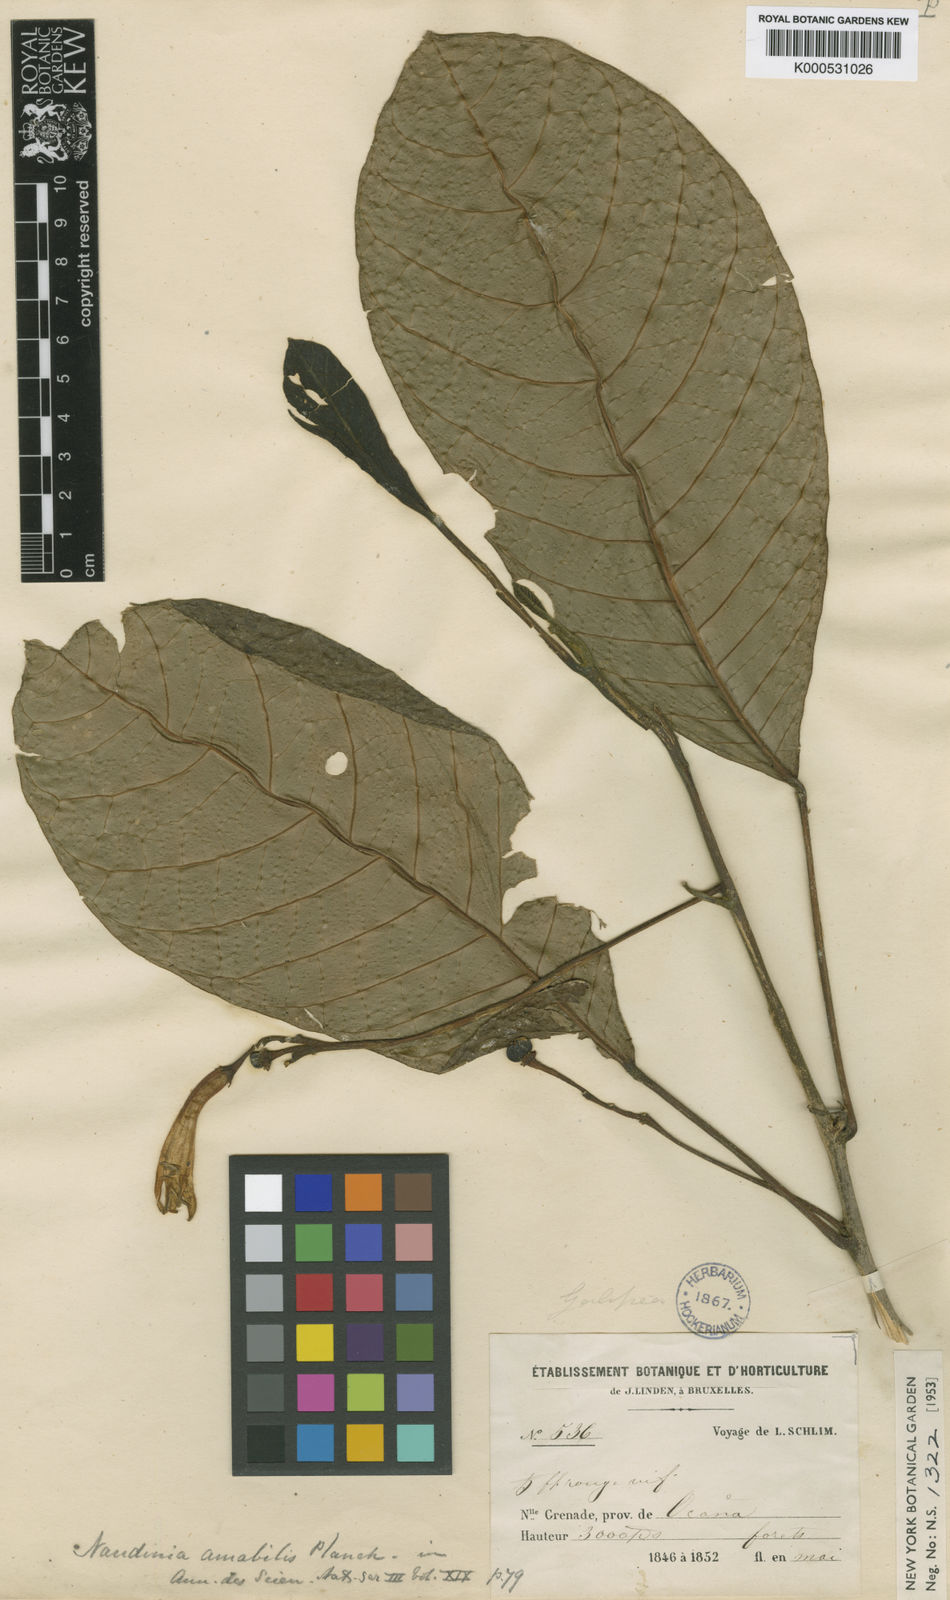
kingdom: Plantae
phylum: Tracheophyta
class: Magnoliopsida
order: Sapindales
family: Rutaceae
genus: Naudinia
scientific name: Naudinia amabilis
